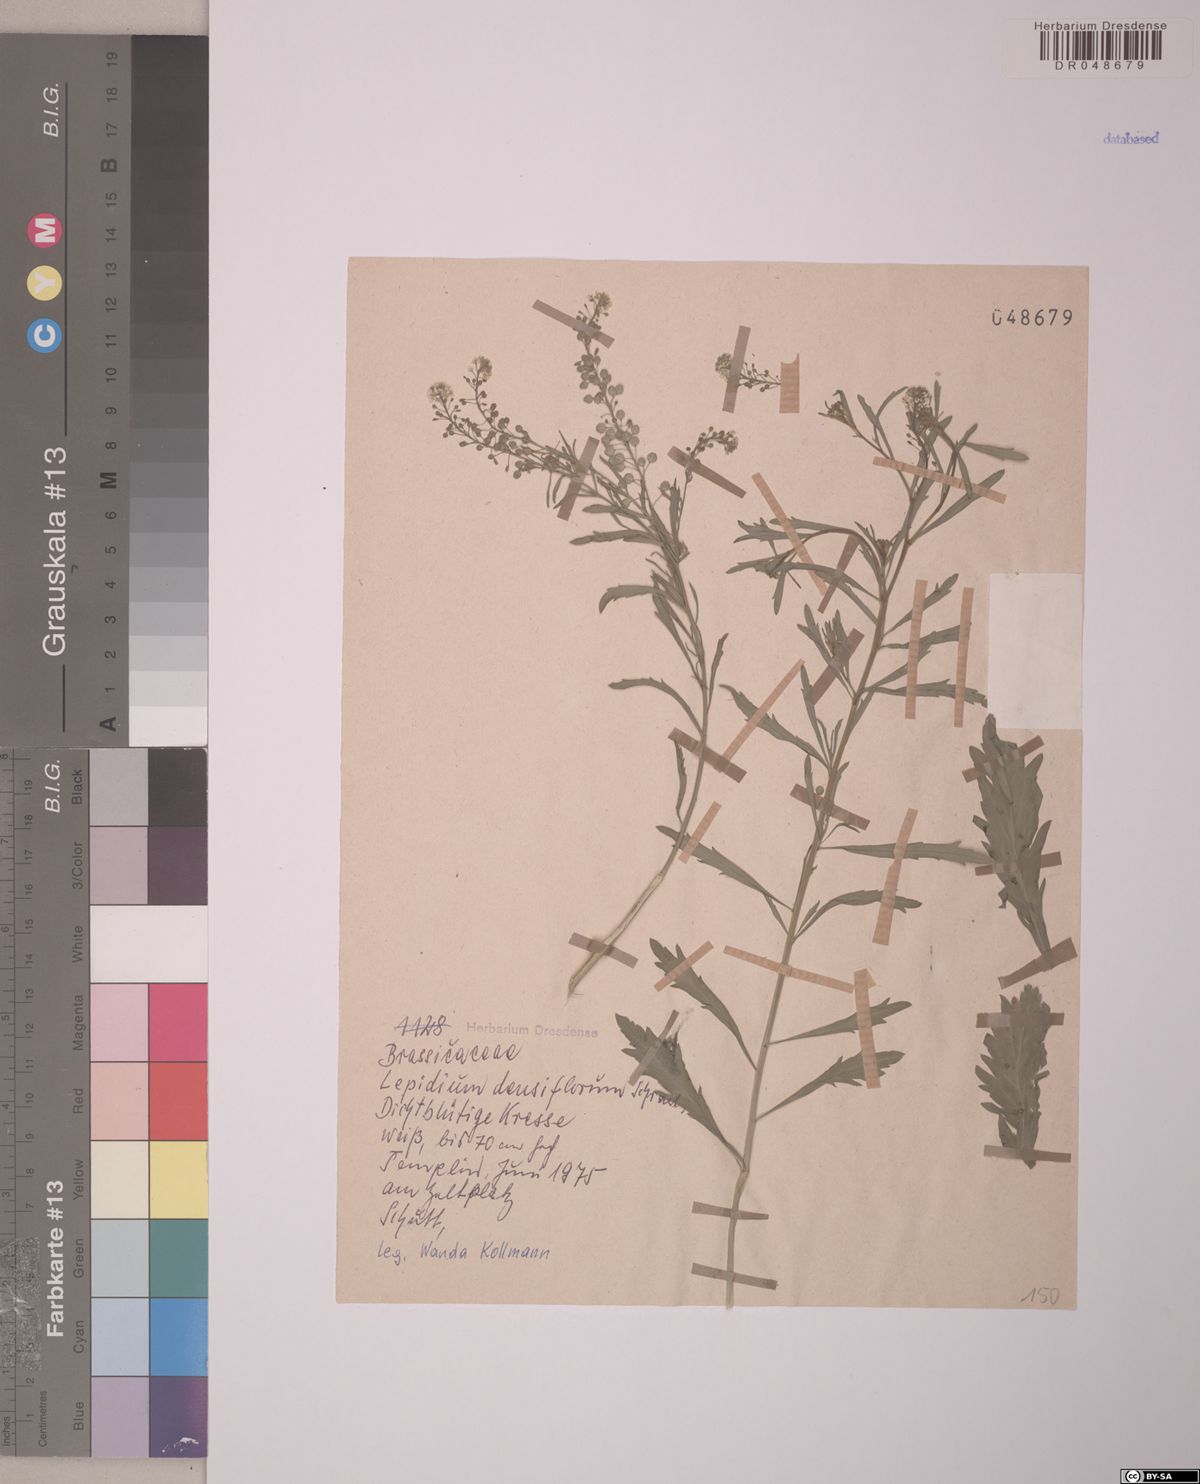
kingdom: Plantae
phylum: Tracheophyta
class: Magnoliopsida
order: Brassicales
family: Brassicaceae
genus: Lepidium
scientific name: Lepidium densiflorum
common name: Miner's pepperwort
